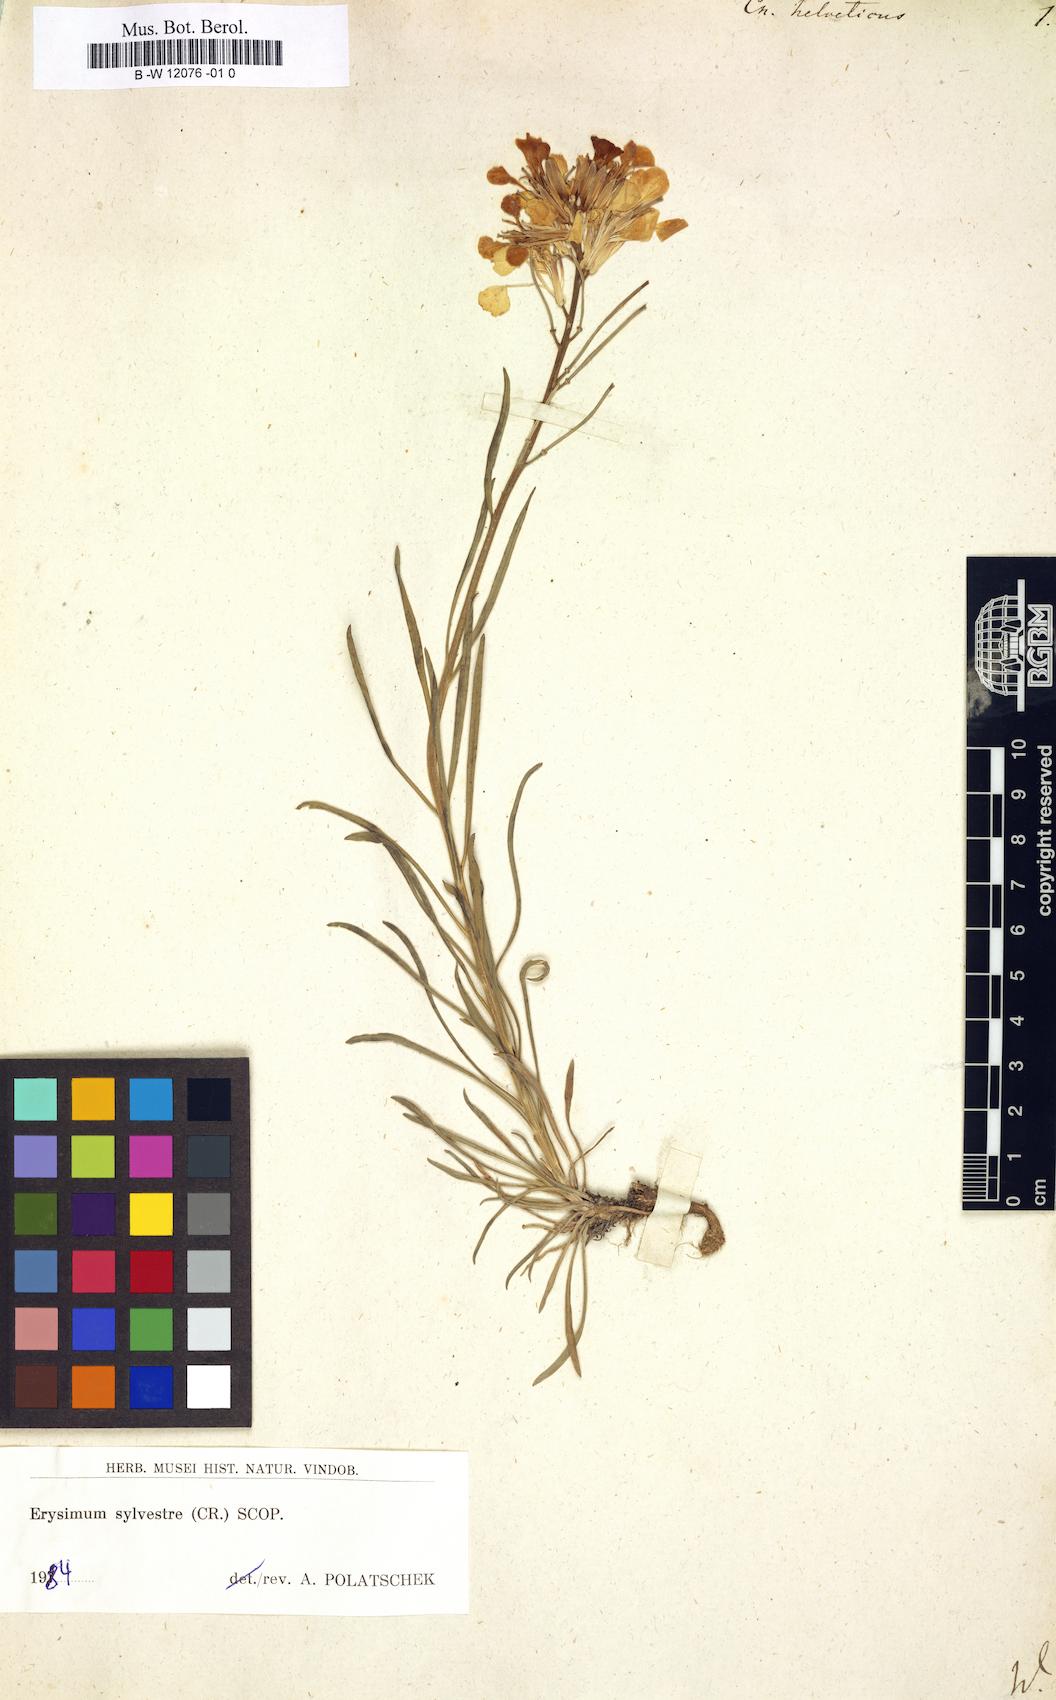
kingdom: Plantae
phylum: Tracheophyta
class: Magnoliopsida
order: Brassicales
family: Brassicaceae
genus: Erysimum
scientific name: Erysimum cheiri
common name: Wallflower
